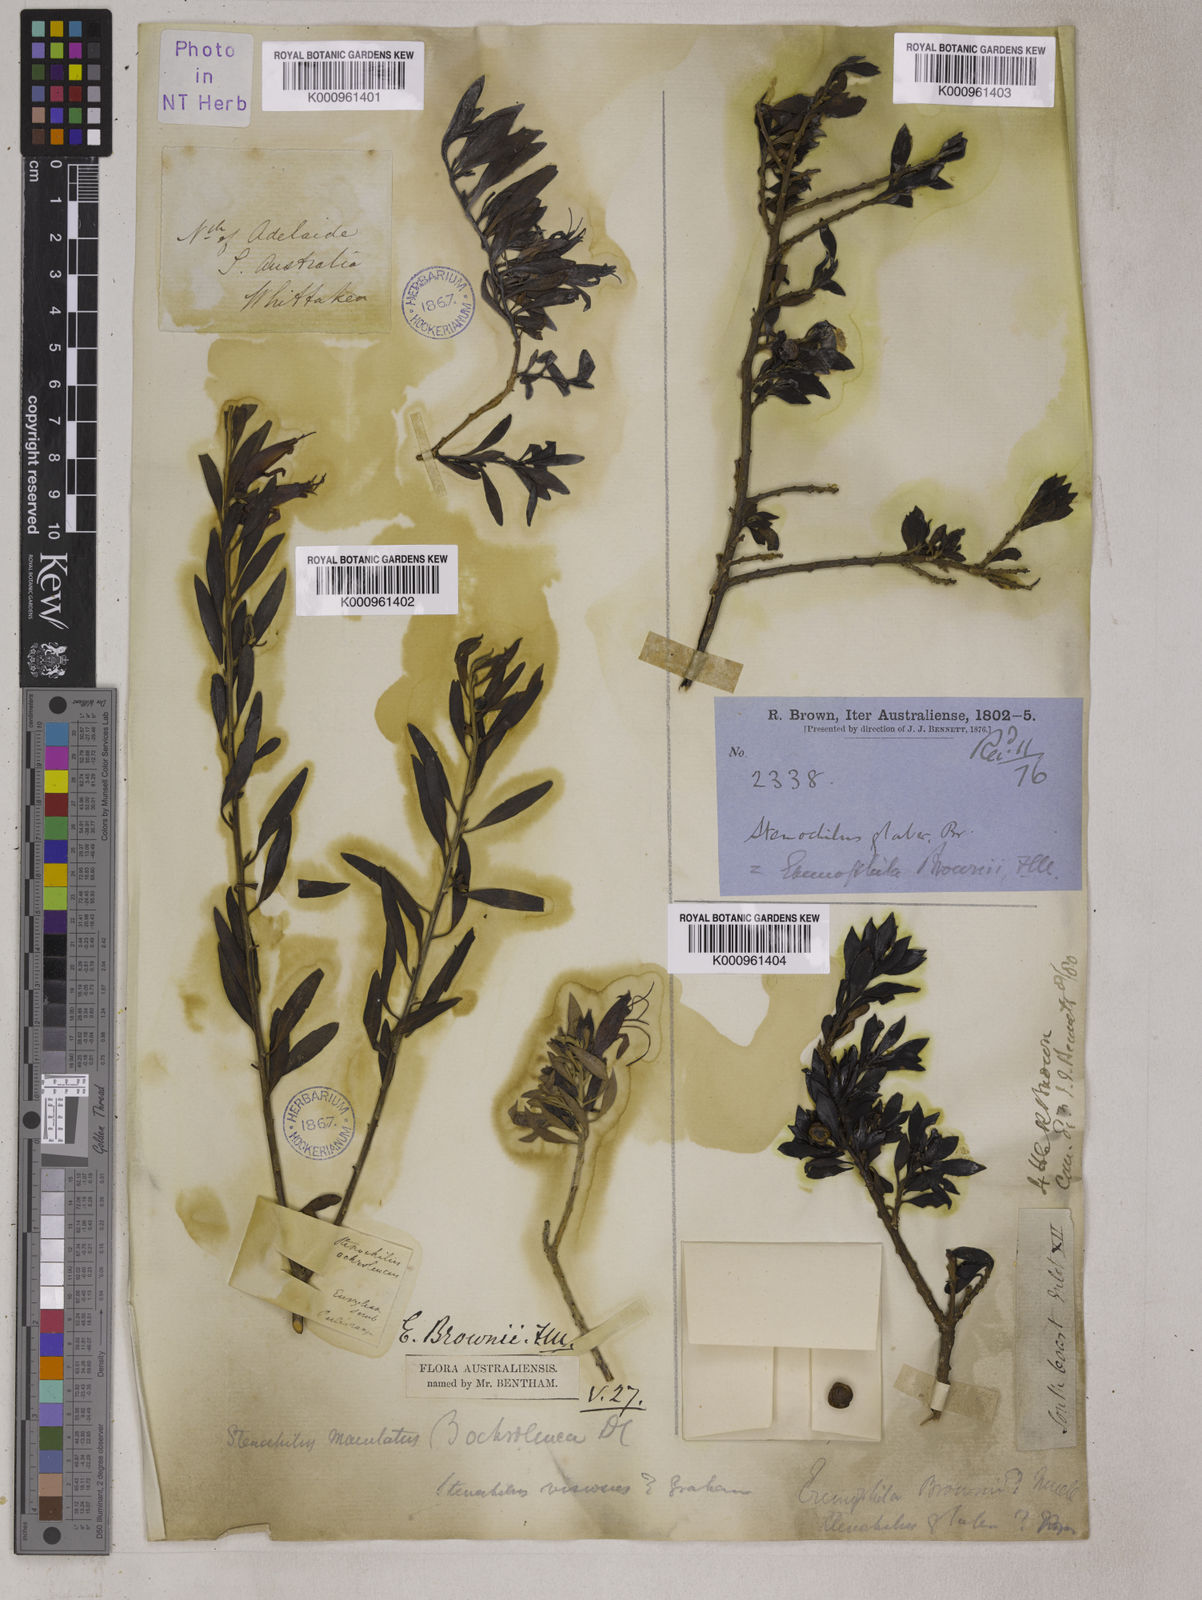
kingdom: Plantae
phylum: Tracheophyta
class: Magnoliopsida
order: Lamiales
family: Scrophulariaceae
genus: Eremophila
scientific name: Eremophila glabra
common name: Black-fuchsia
